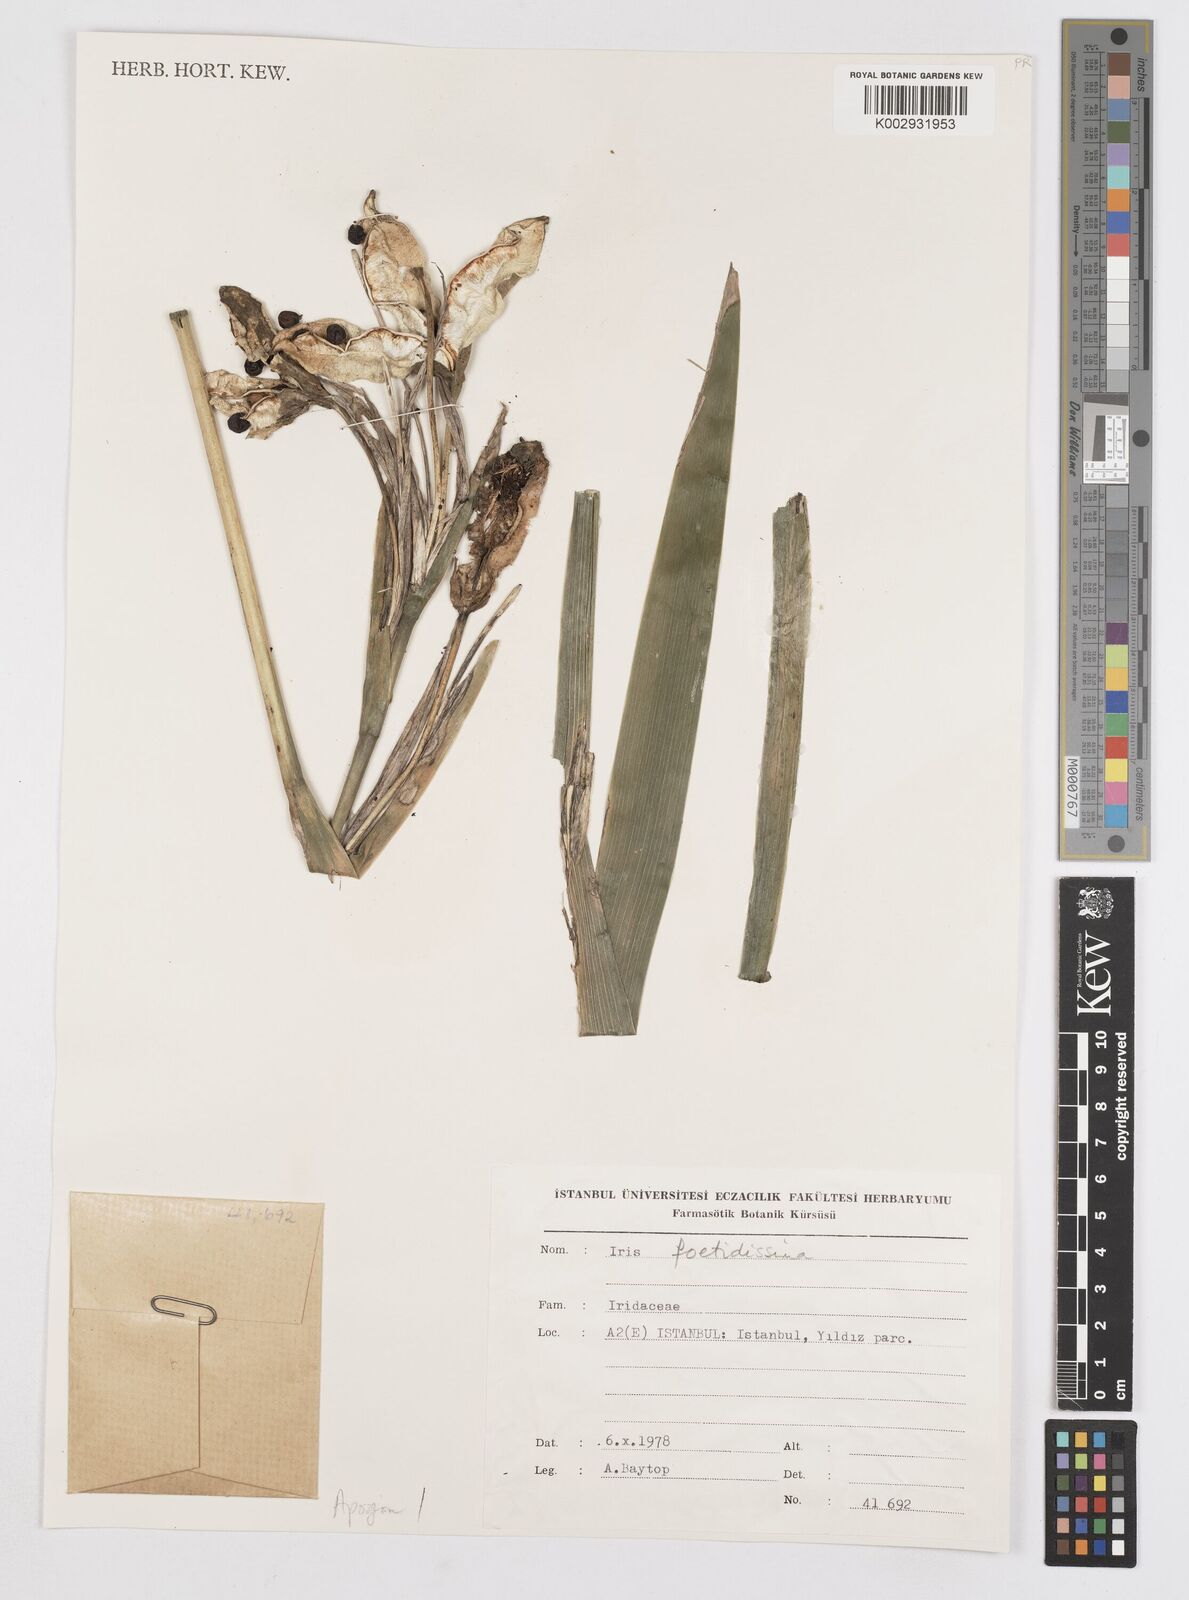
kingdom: Plantae
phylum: Tracheophyta
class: Liliopsida
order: Asparagales
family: Iridaceae
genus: Iris
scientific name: Iris foetidissima
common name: Stinking iris
